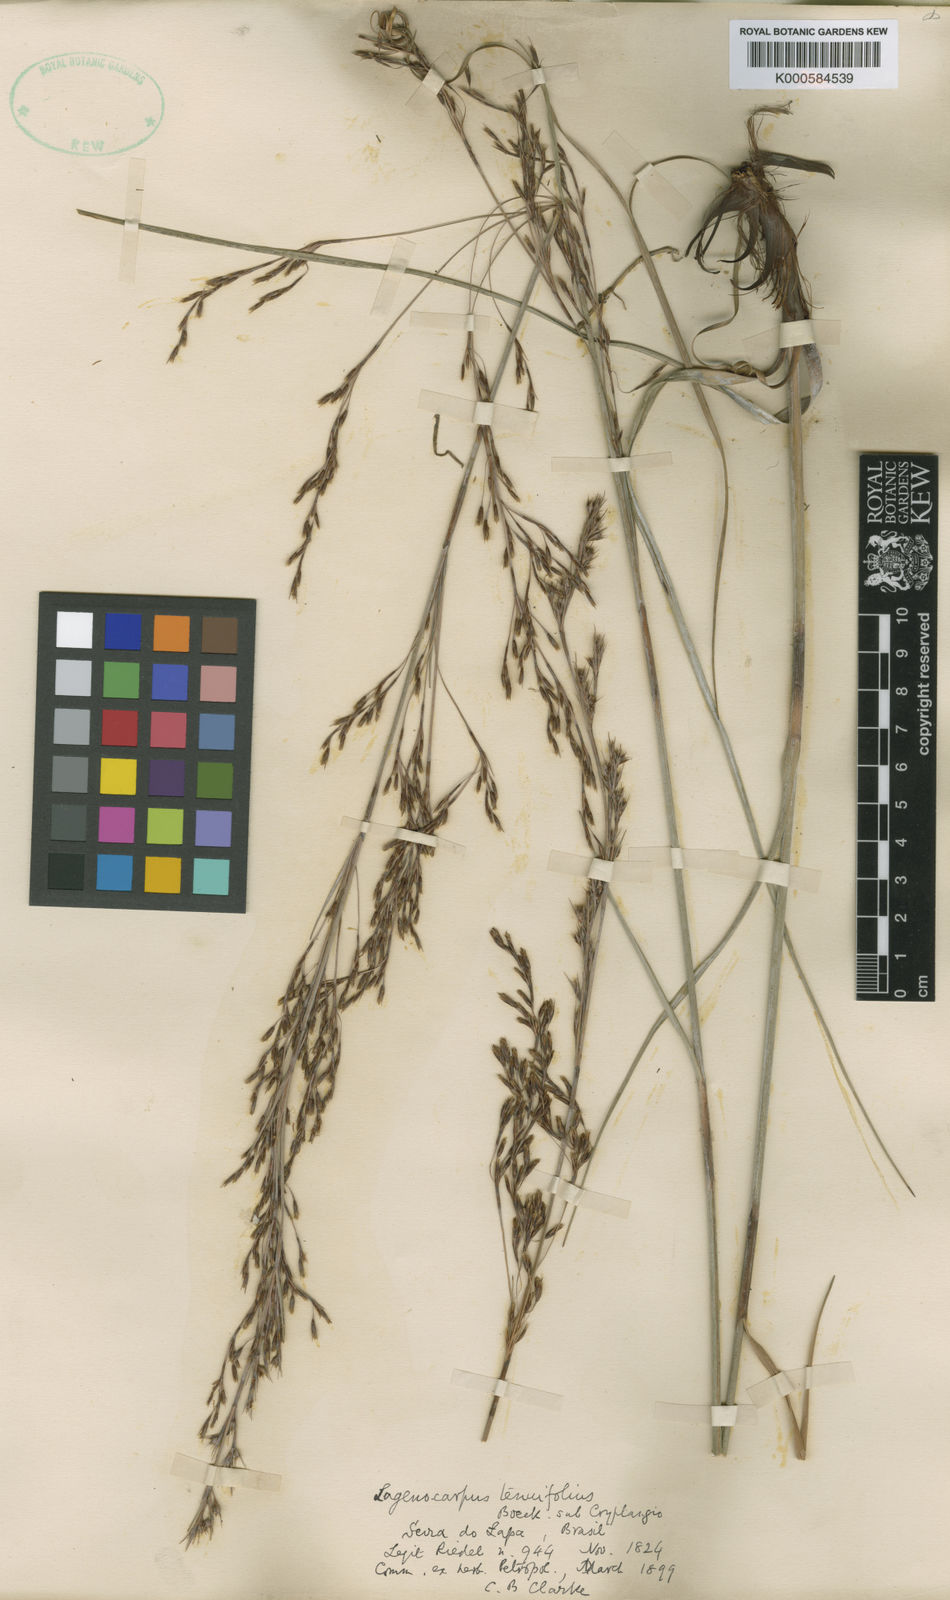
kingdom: Plantae
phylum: Tracheophyta
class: Liliopsida
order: Poales
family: Cyperaceae
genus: Lagenocarpus
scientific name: Lagenocarpus rigidus
